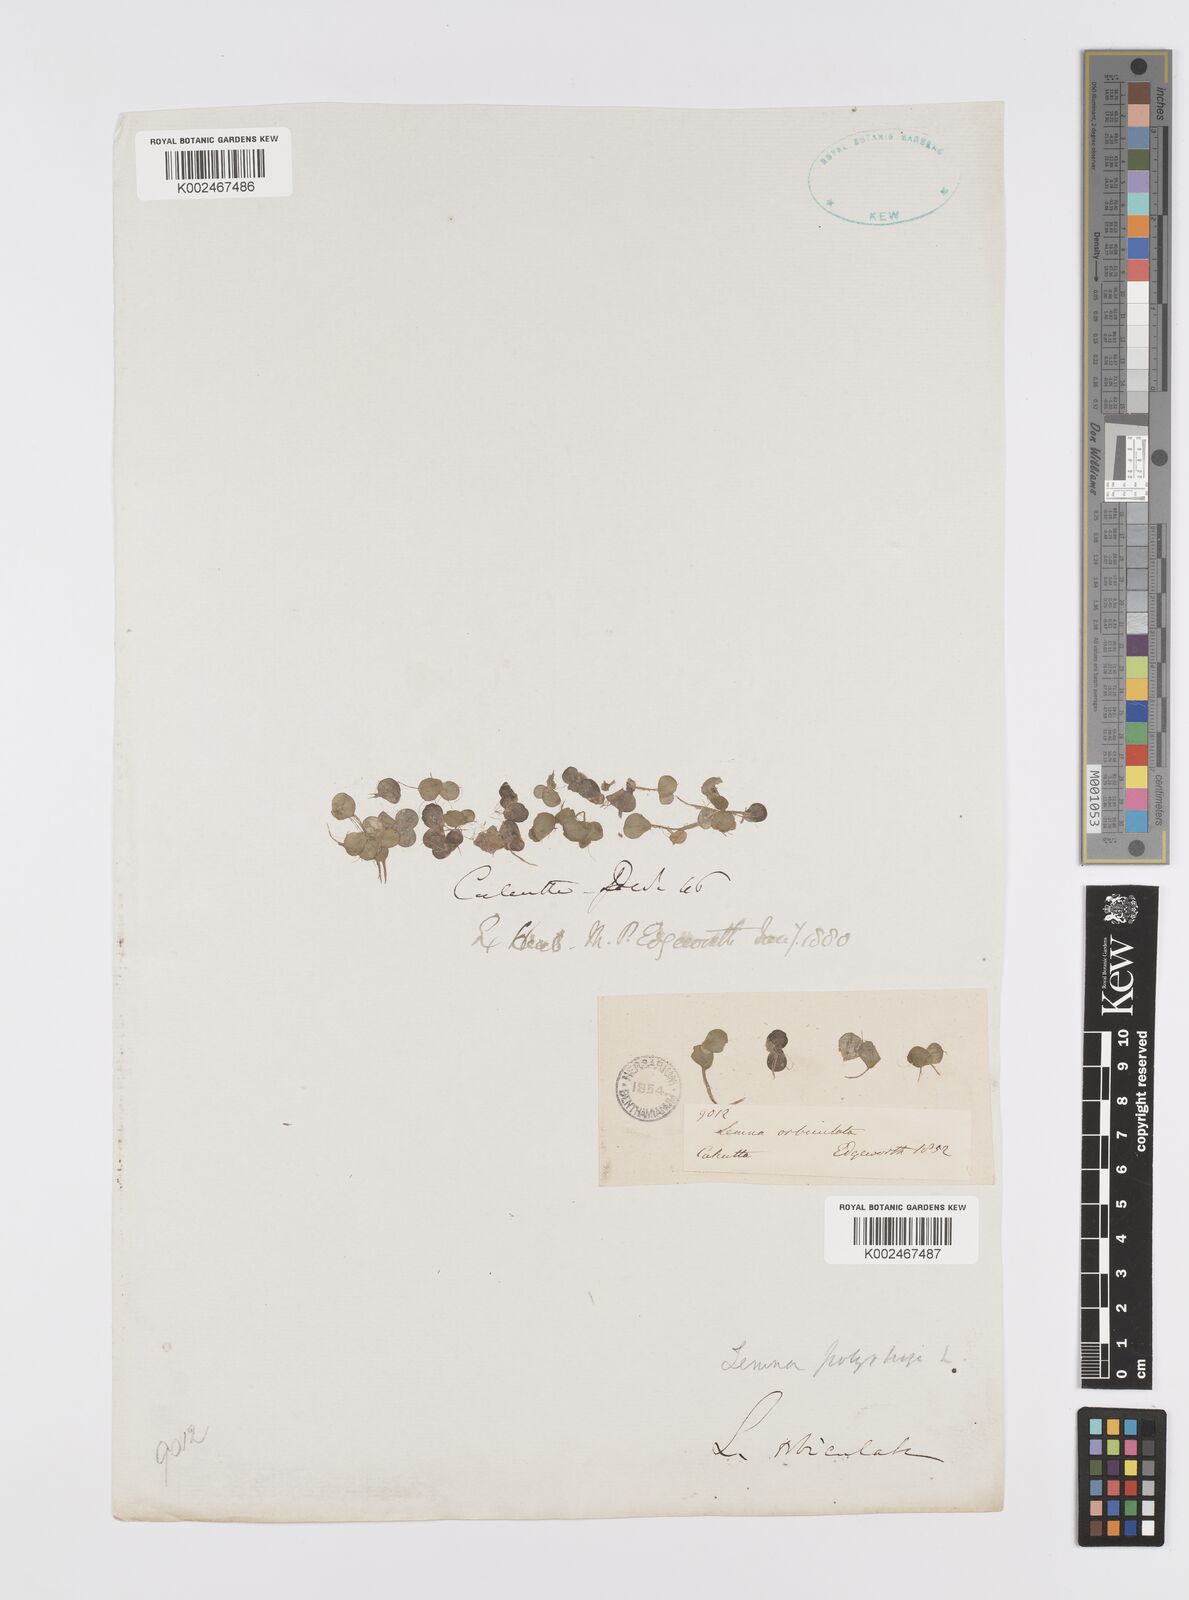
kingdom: Plantae
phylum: Tracheophyta
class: Liliopsida
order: Alismatales
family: Araceae
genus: Spirodela
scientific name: Spirodela polyrhiza
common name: Great duckweed
